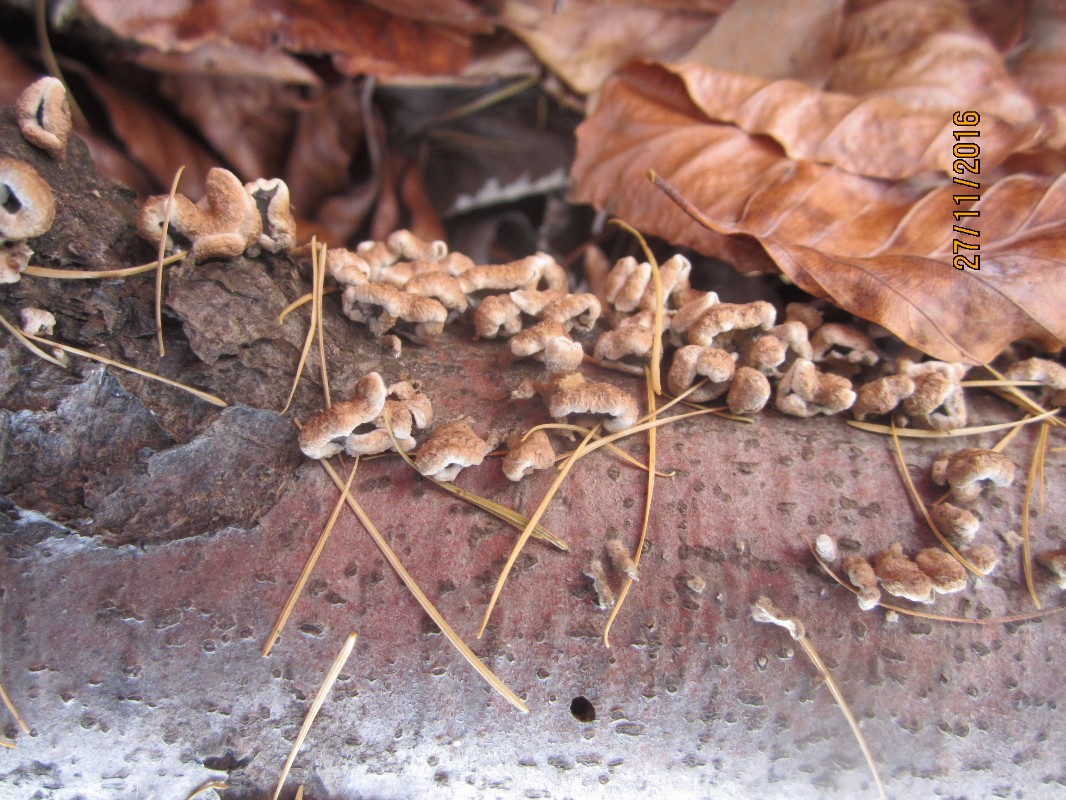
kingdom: Fungi
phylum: Ascomycota
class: Pezizomycetes
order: Pezizales
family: Helvellaceae
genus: Helvella
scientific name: Helvella crispa
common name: kruset foldhat
